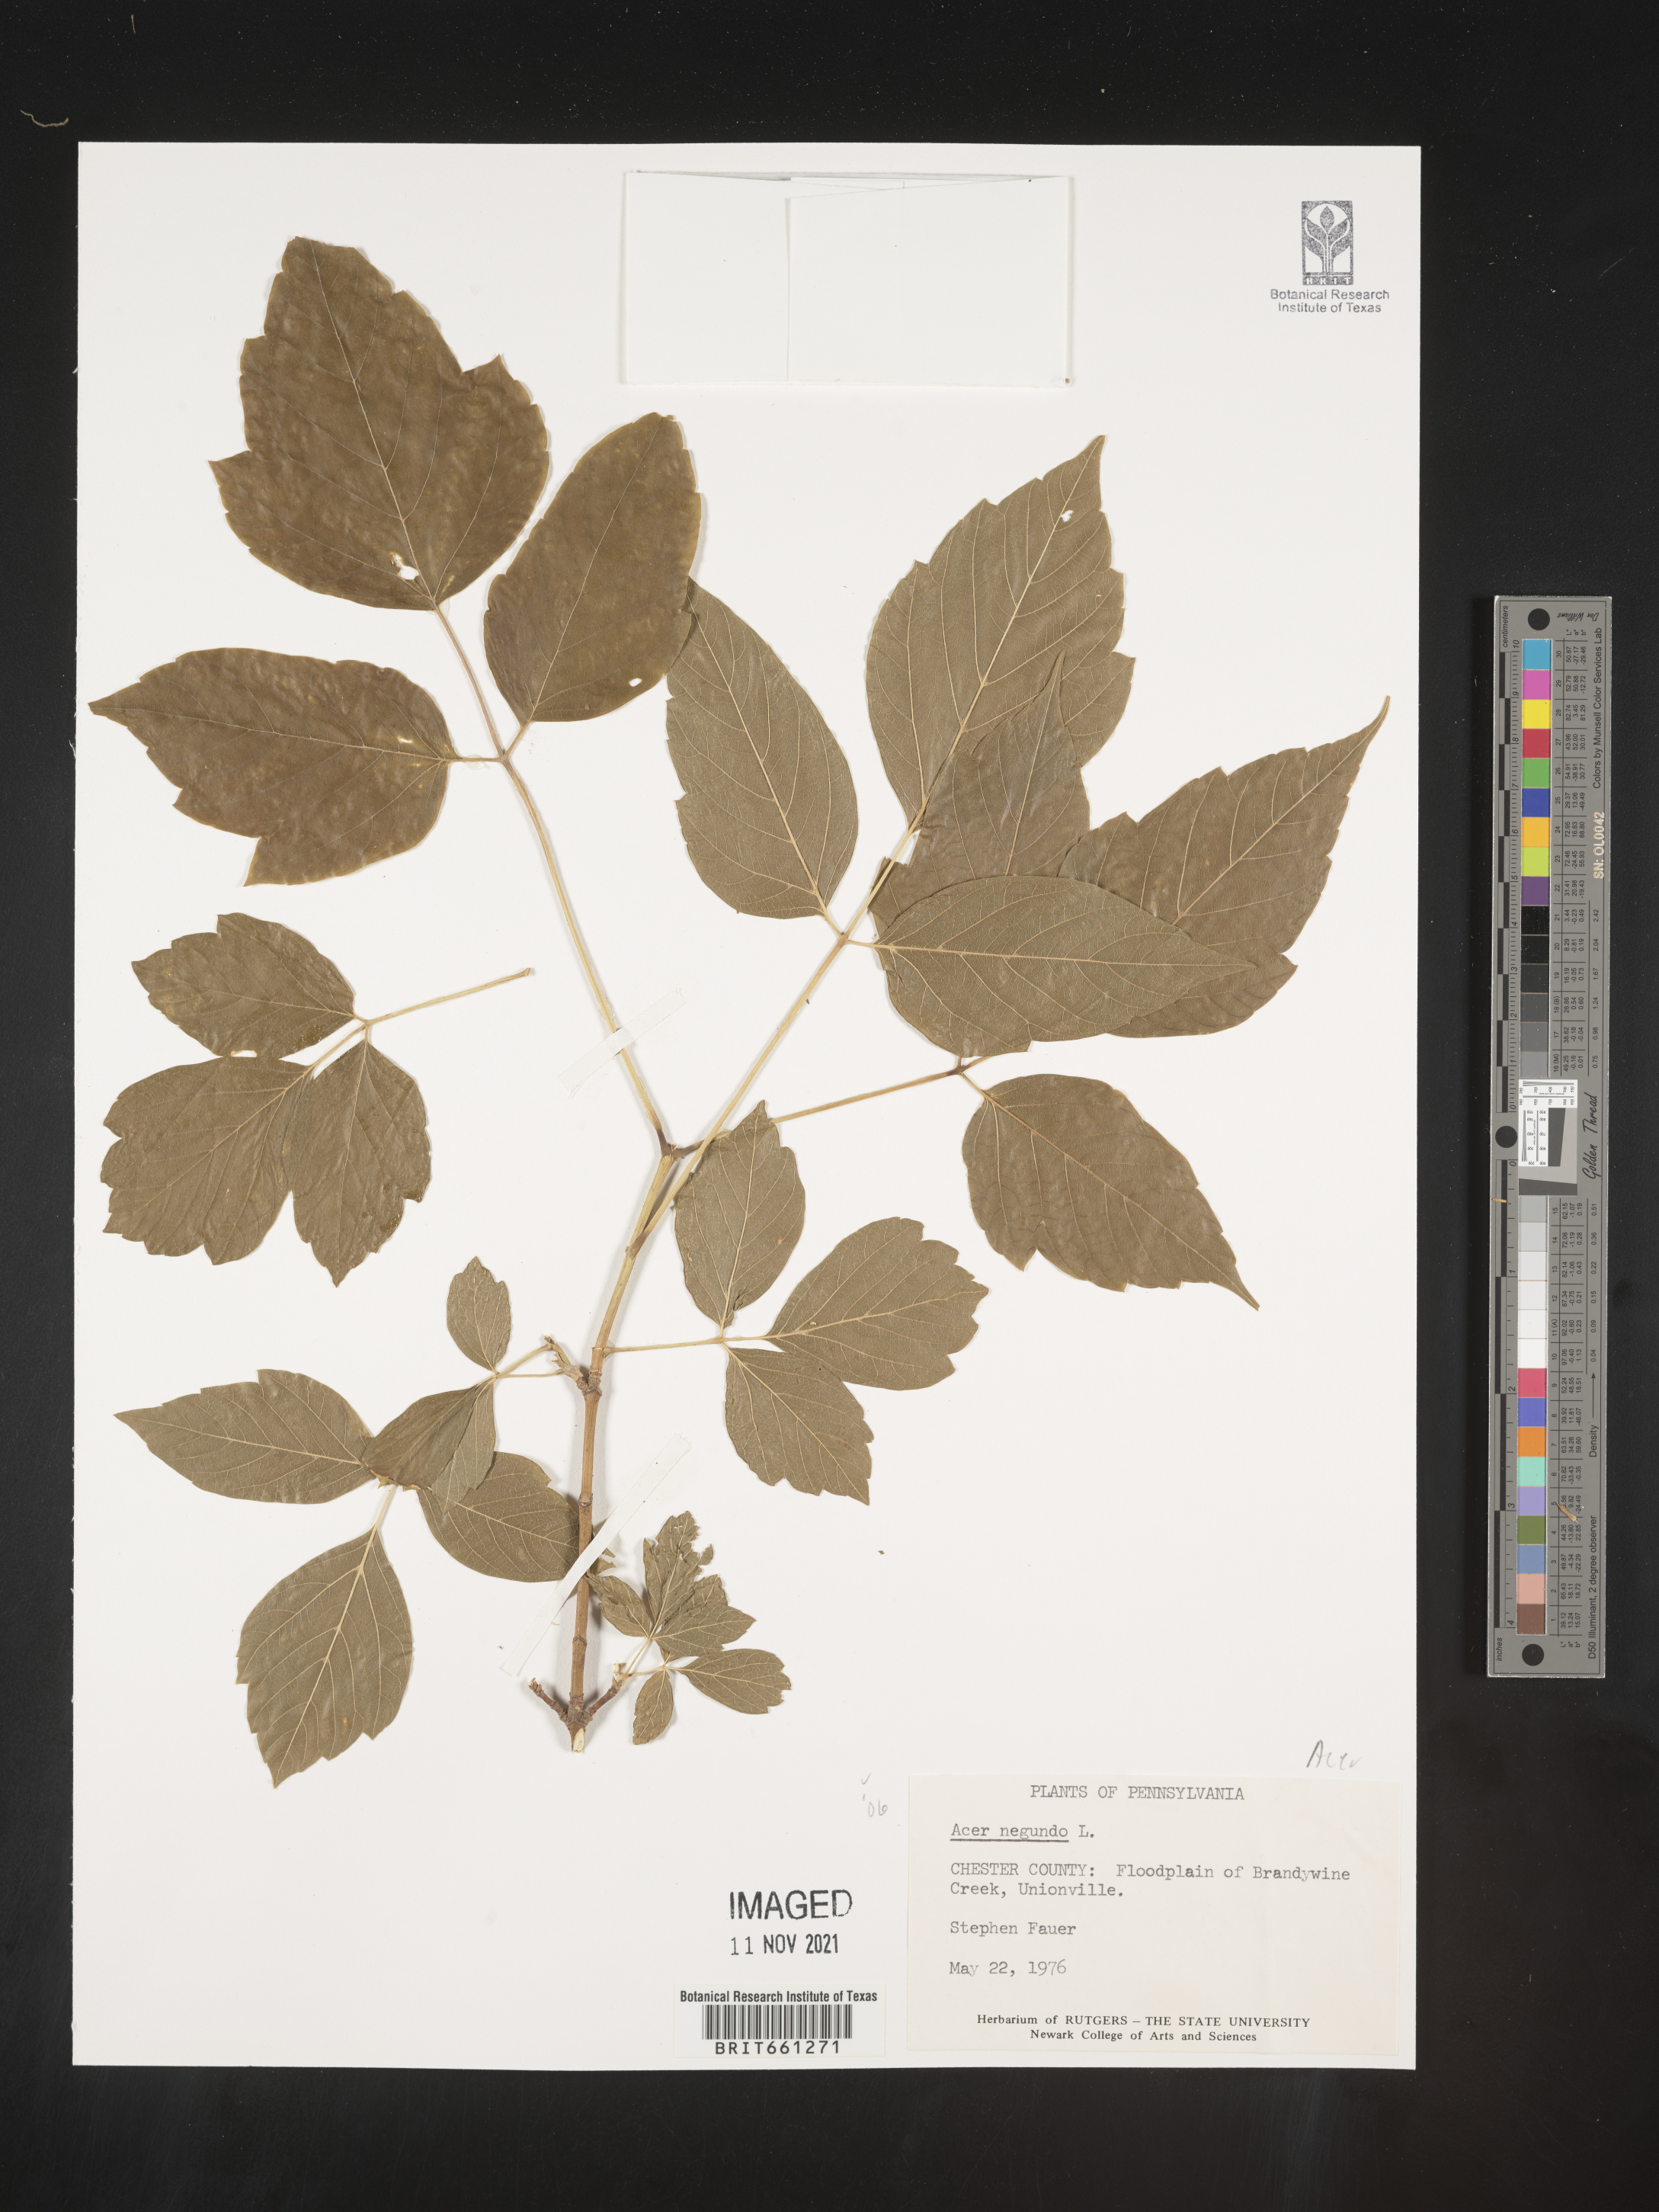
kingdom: Plantae
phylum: Tracheophyta
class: Magnoliopsida
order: Sapindales
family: Sapindaceae
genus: Acer
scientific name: Acer negundo
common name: Ashleaf maple
